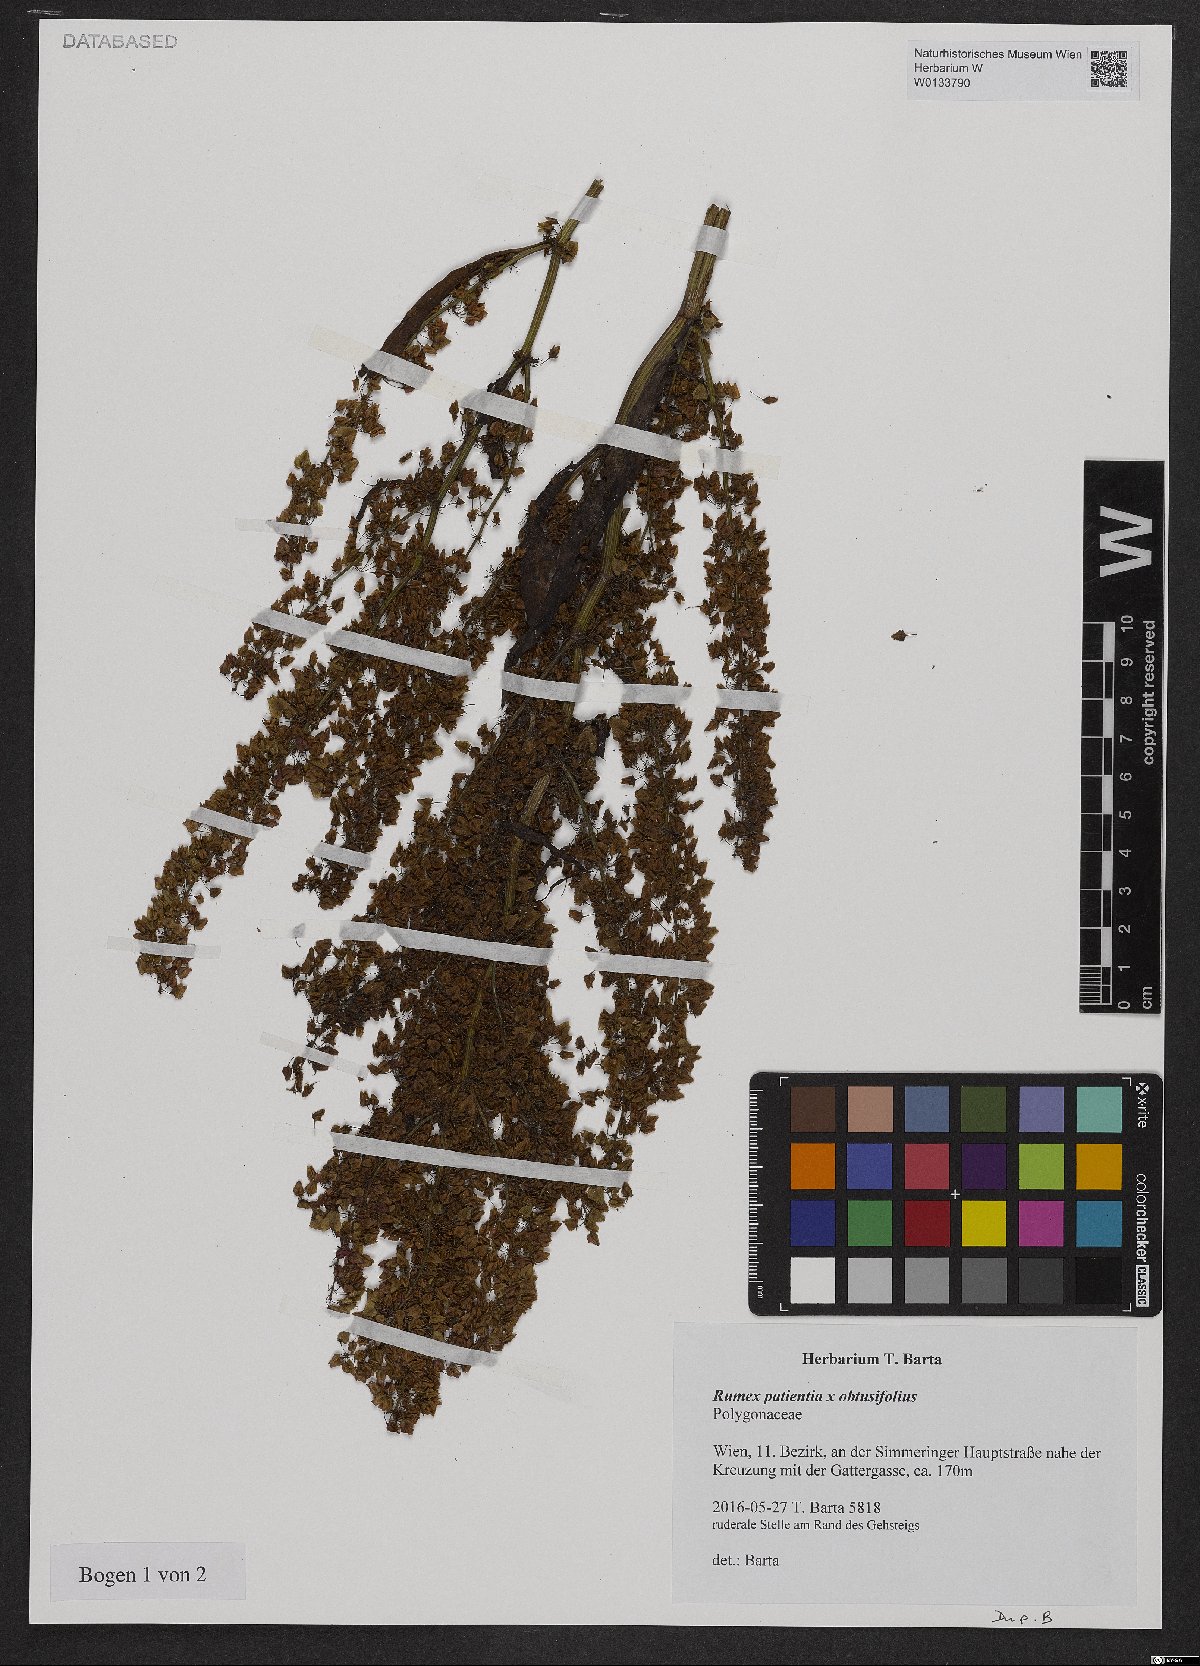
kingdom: Plantae
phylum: Tracheophyta
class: Magnoliopsida
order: Caryophyllales
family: Polygonaceae
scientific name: Polygonaceae
